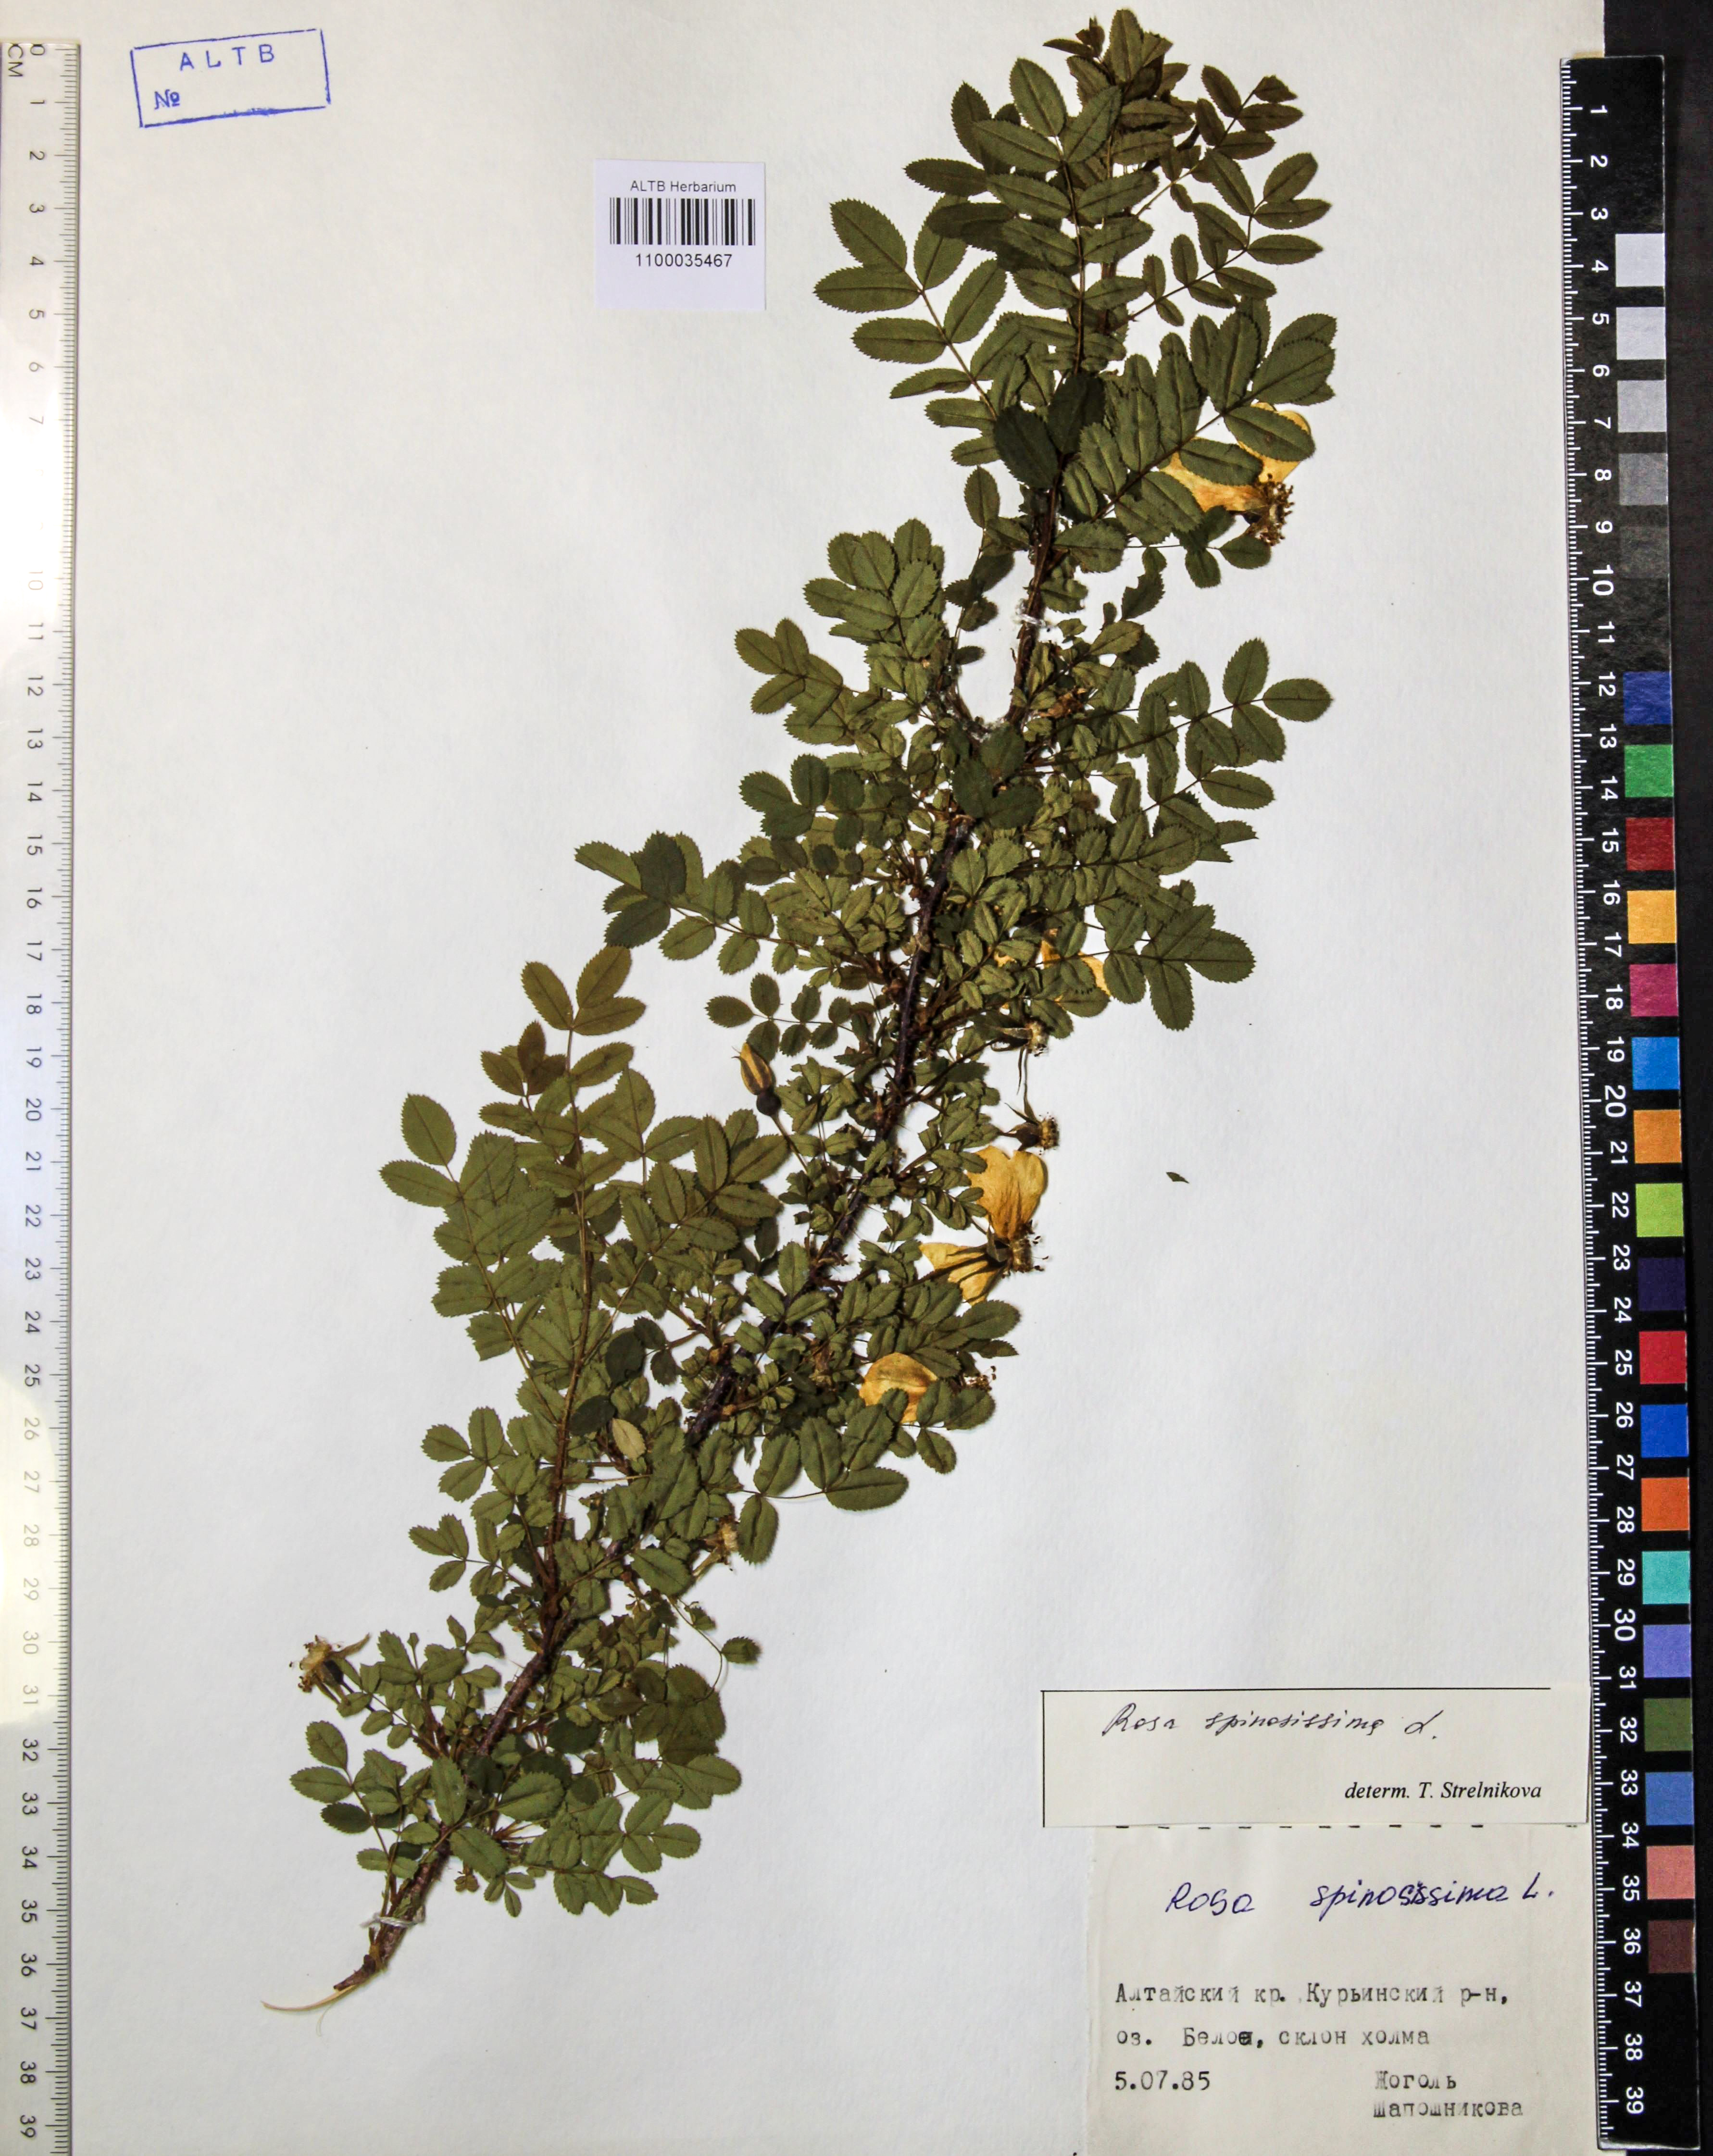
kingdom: Plantae
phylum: Tracheophyta
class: Magnoliopsida
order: Rosales
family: Rosaceae
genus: Rosa
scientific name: Rosa spinosissima
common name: Burnet rose
